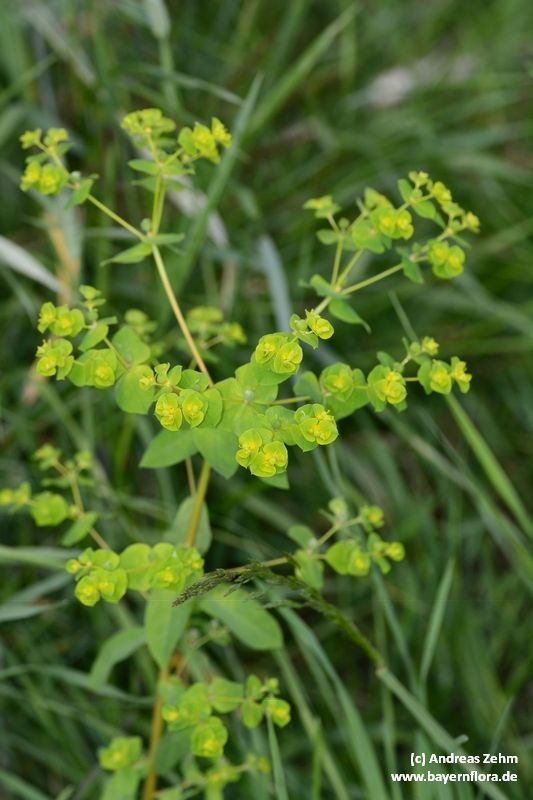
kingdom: Plantae
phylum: Tracheophyta
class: Magnoliopsida
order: Malpighiales
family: Euphorbiaceae
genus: Euphorbia
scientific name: Euphorbia platyphyllos
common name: Broad-leaved spurge
